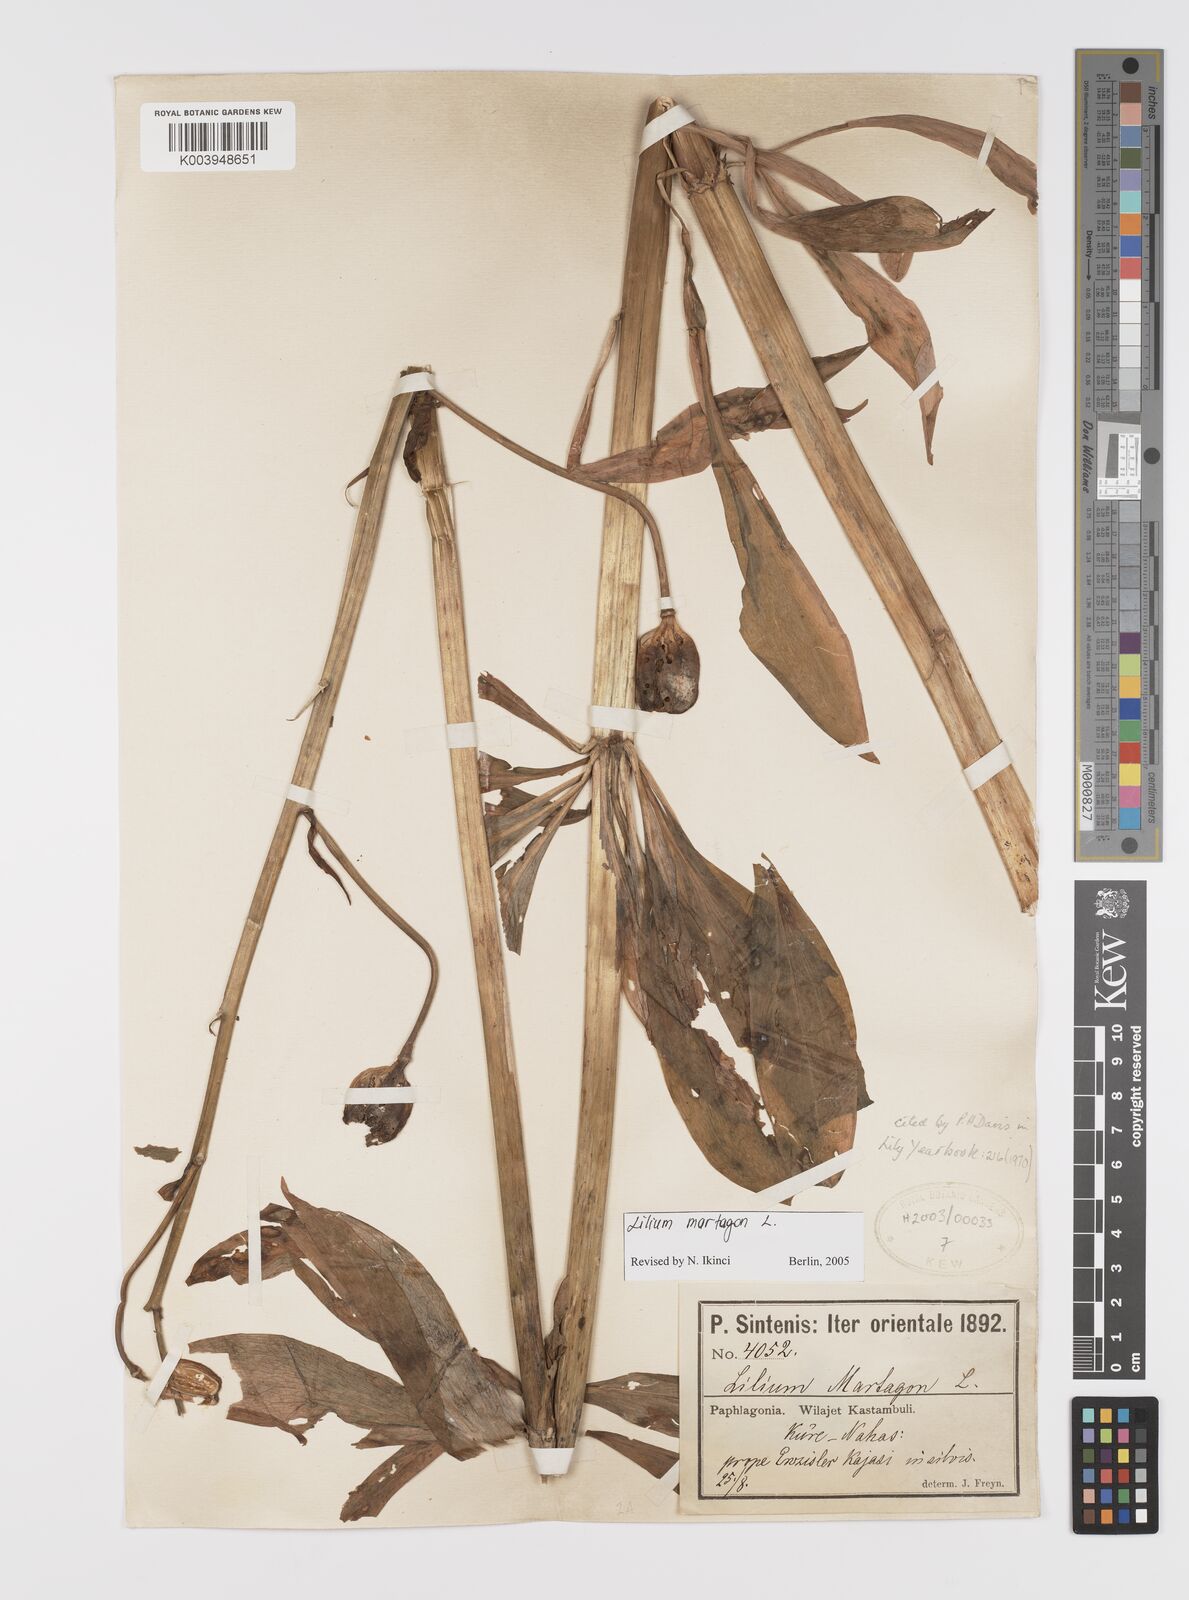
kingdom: Plantae
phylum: Tracheophyta
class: Liliopsida
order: Liliales
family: Liliaceae
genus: Lilium
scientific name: Lilium martagon
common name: Martagon lily
